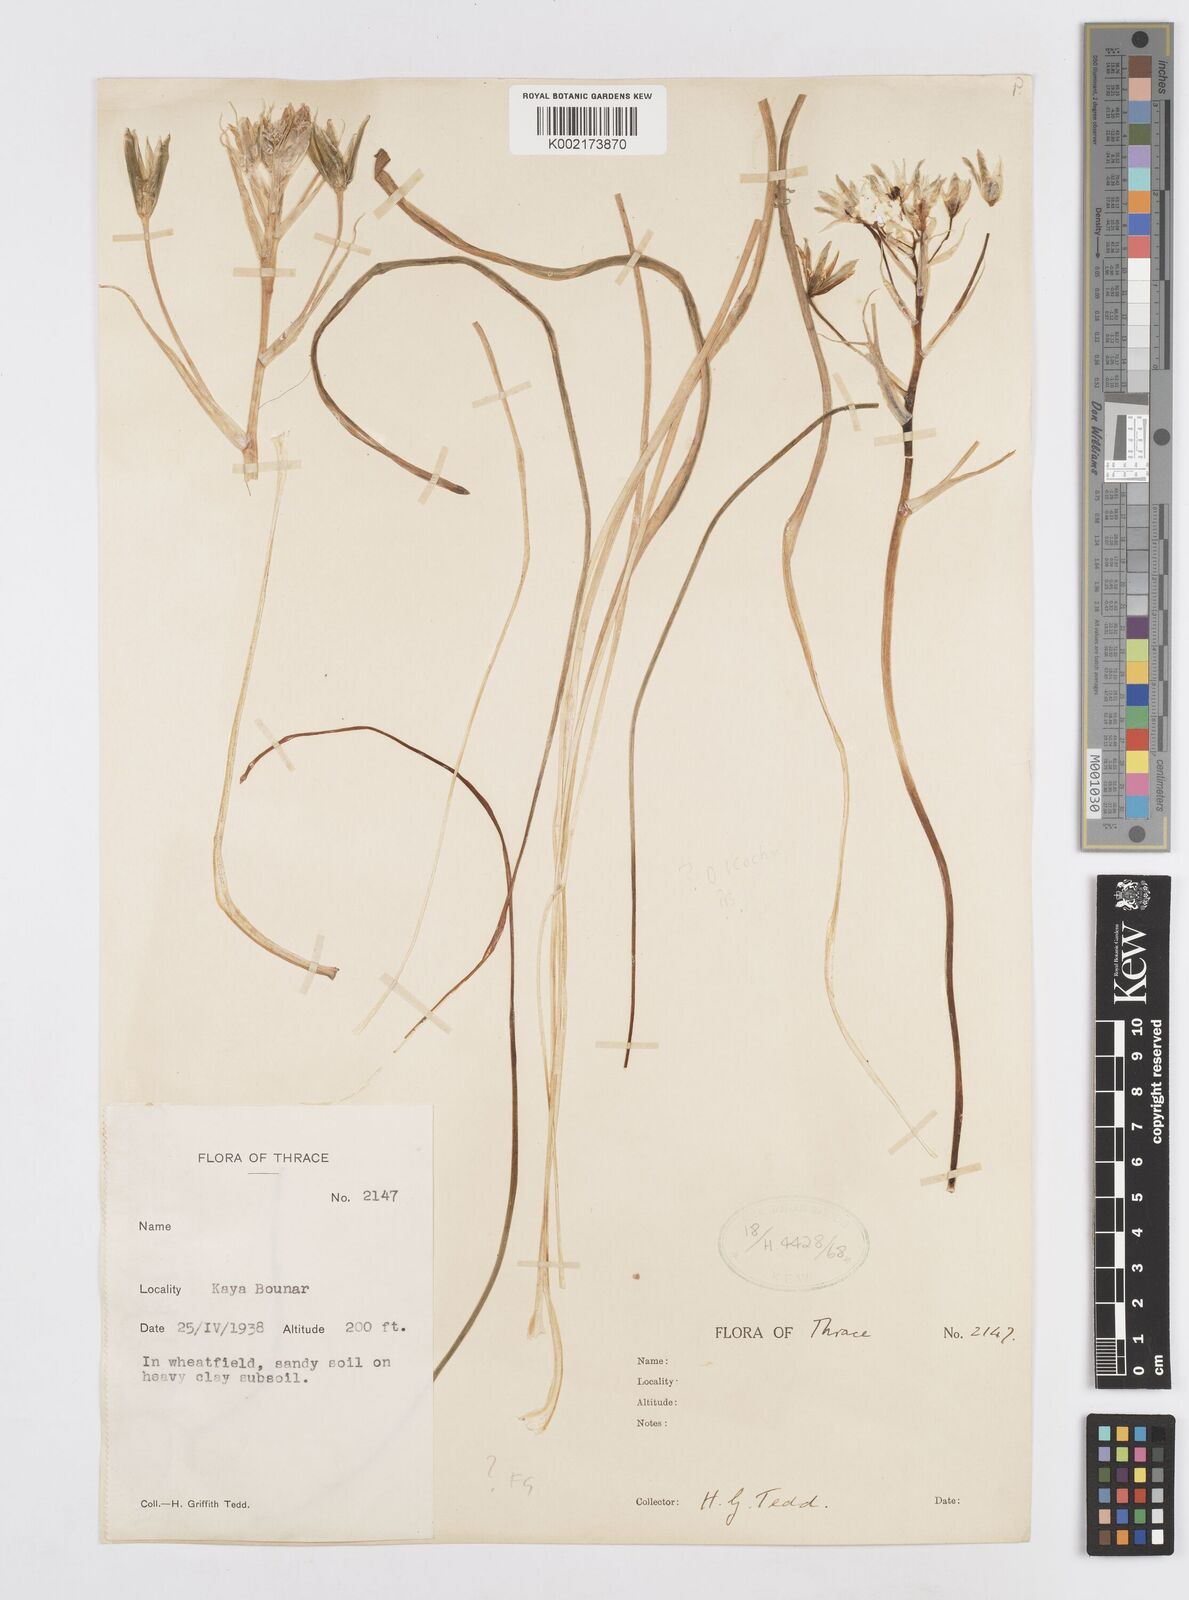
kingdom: Plantae
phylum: Tracheophyta
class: Liliopsida
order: Asparagales
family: Asparagaceae
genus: Ornithogalum
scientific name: Ornithogalum orthophyllum
